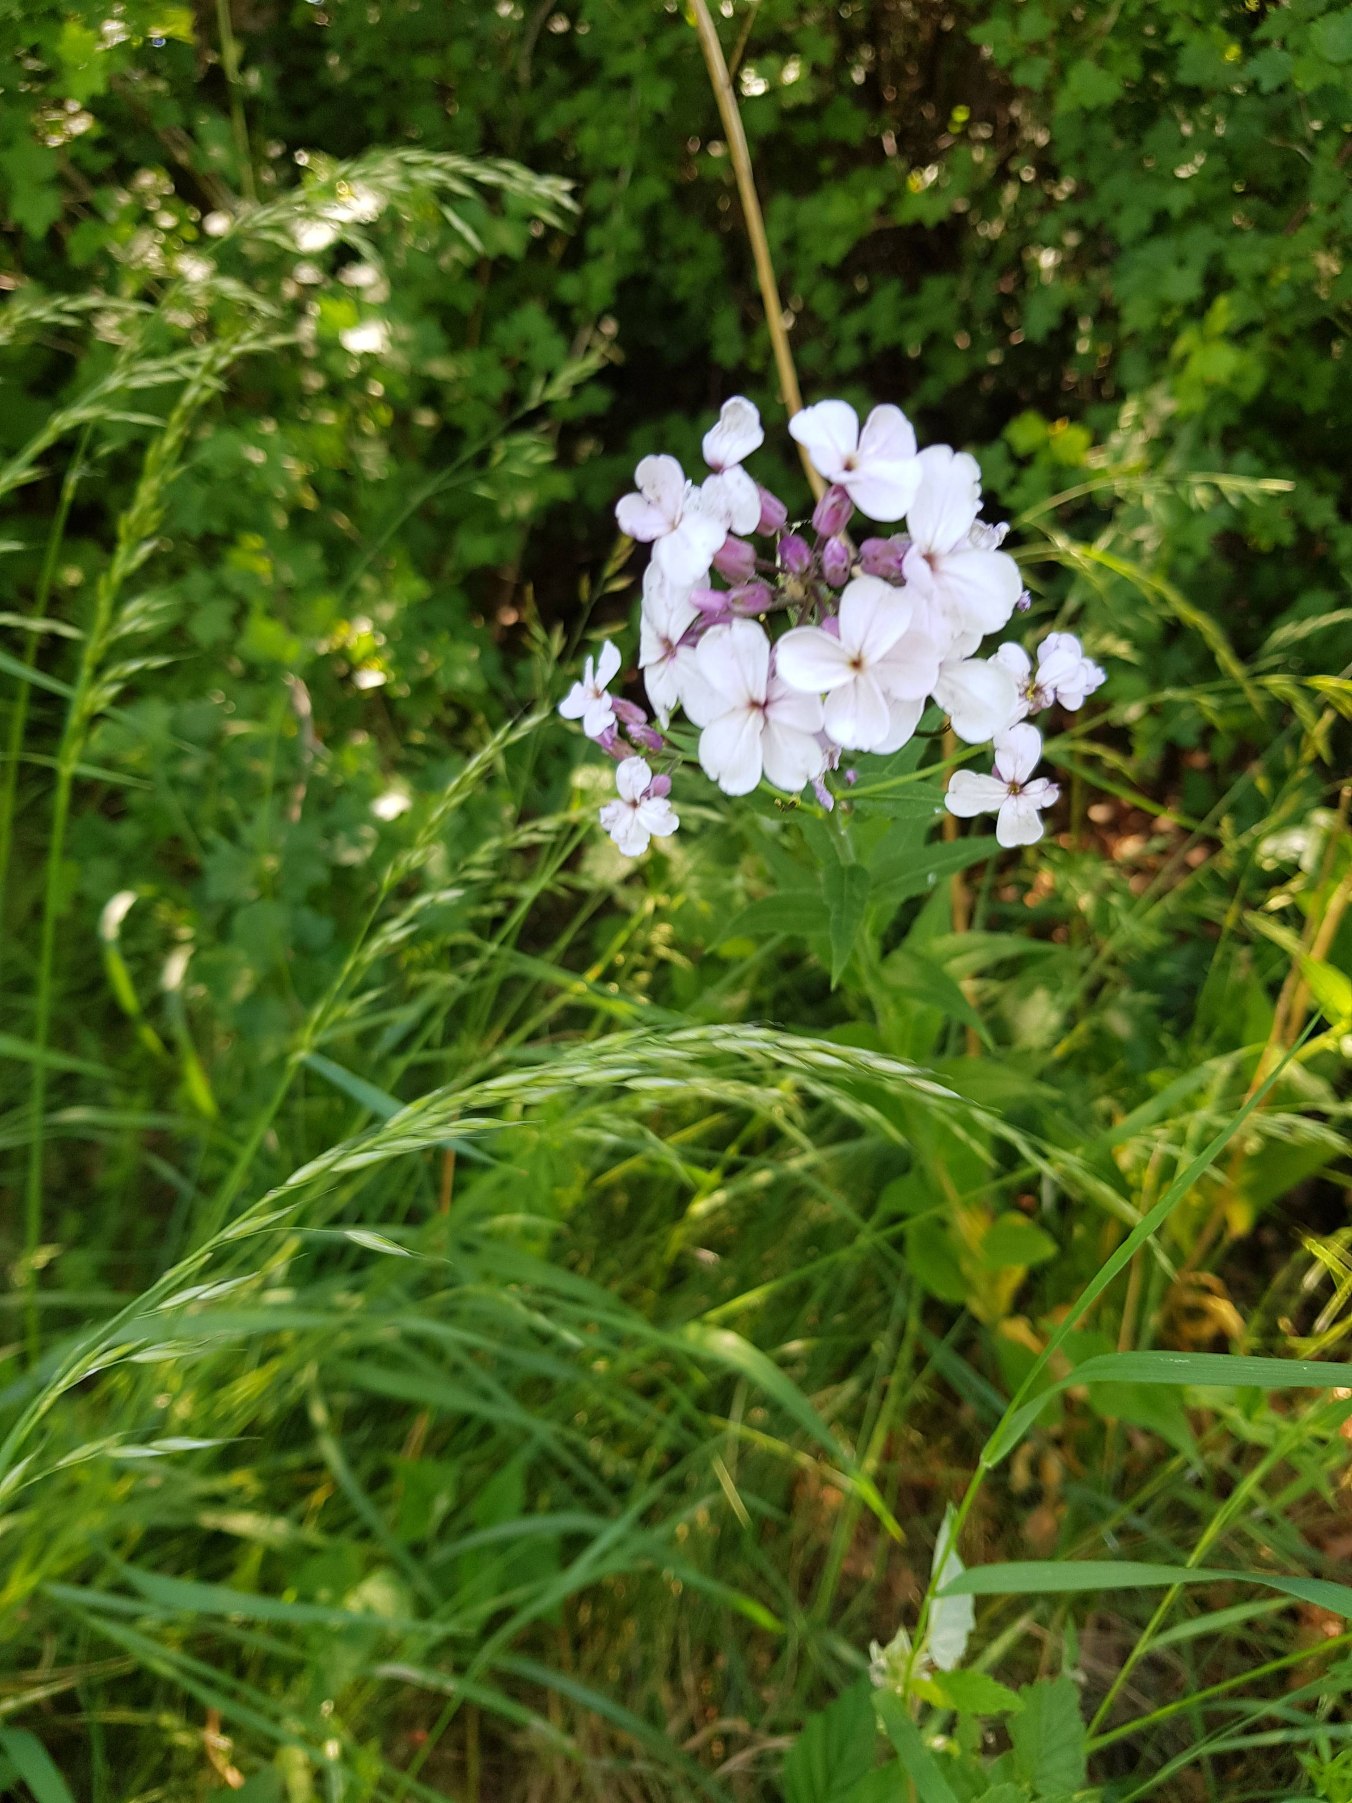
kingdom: Plantae
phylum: Tracheophyta
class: Magnoliopsida
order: Brassicales
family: Brassicaceae
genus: Hesperis
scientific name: Hesperis matronalis
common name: Aftenstjerne
